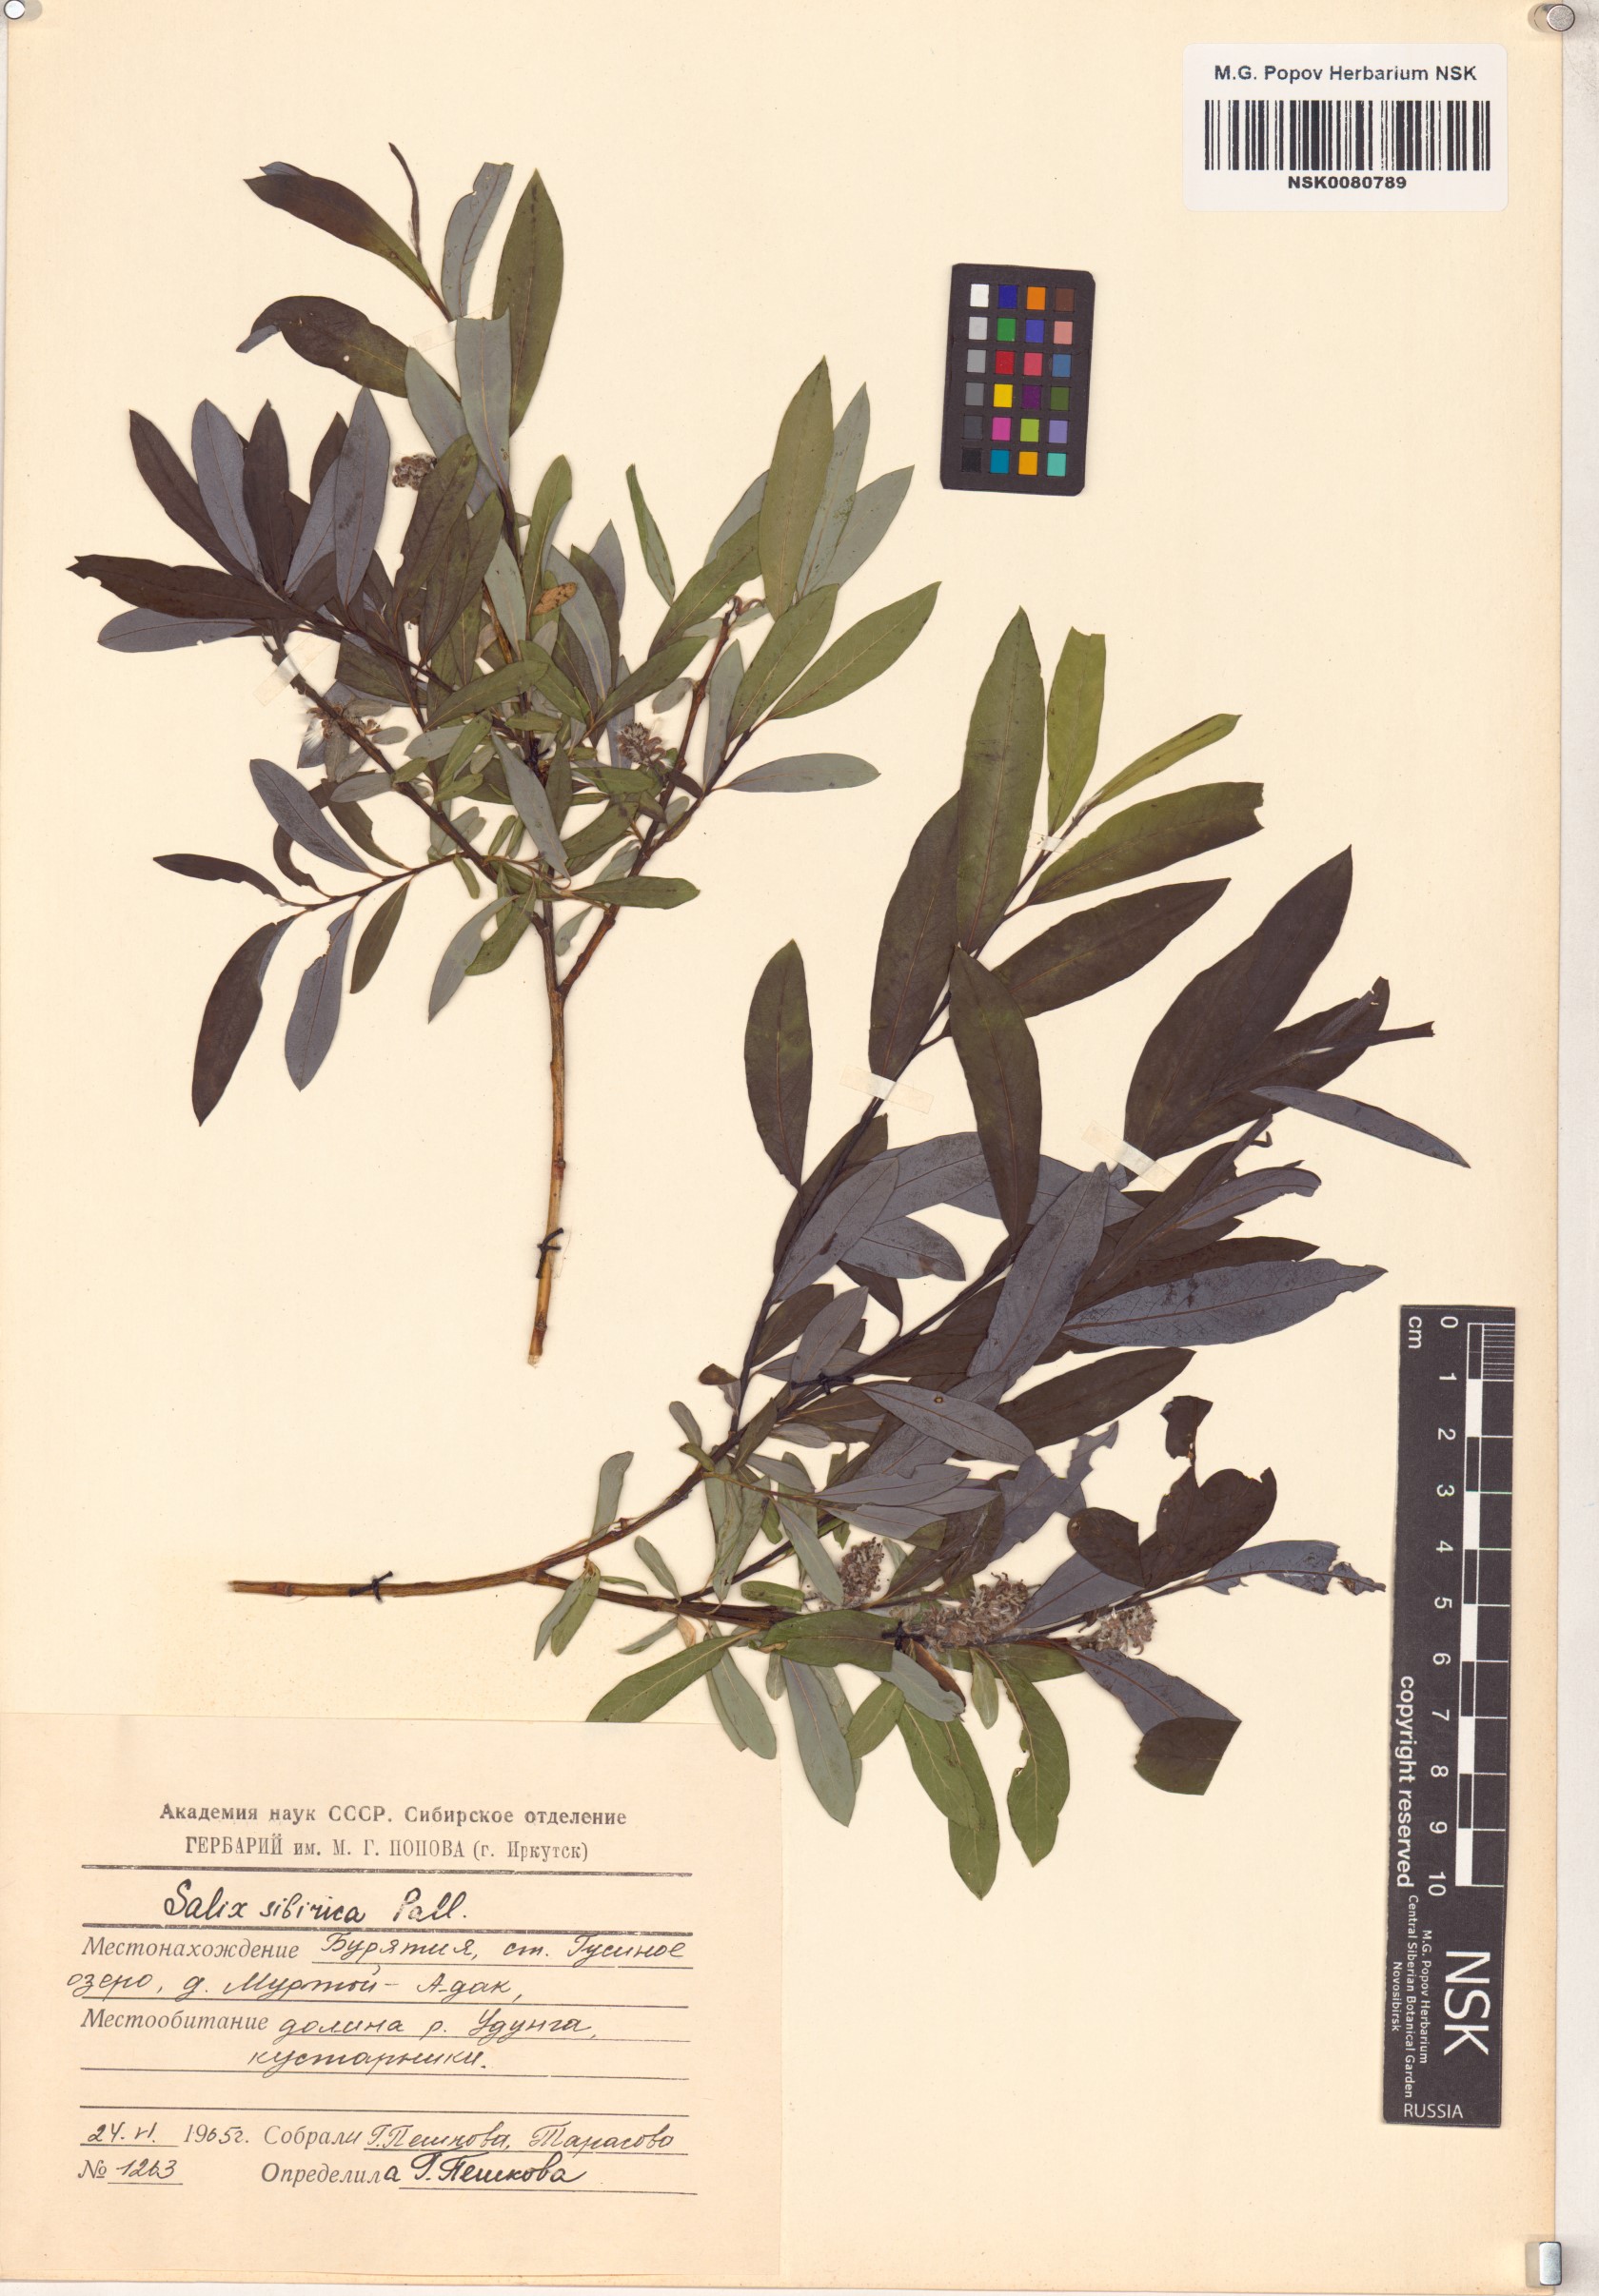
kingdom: Plantae
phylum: Tracheophyta
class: Magnoliopsida
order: Malpighiales
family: Salicaceae
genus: Salix
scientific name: Salix rosmarinifolia
